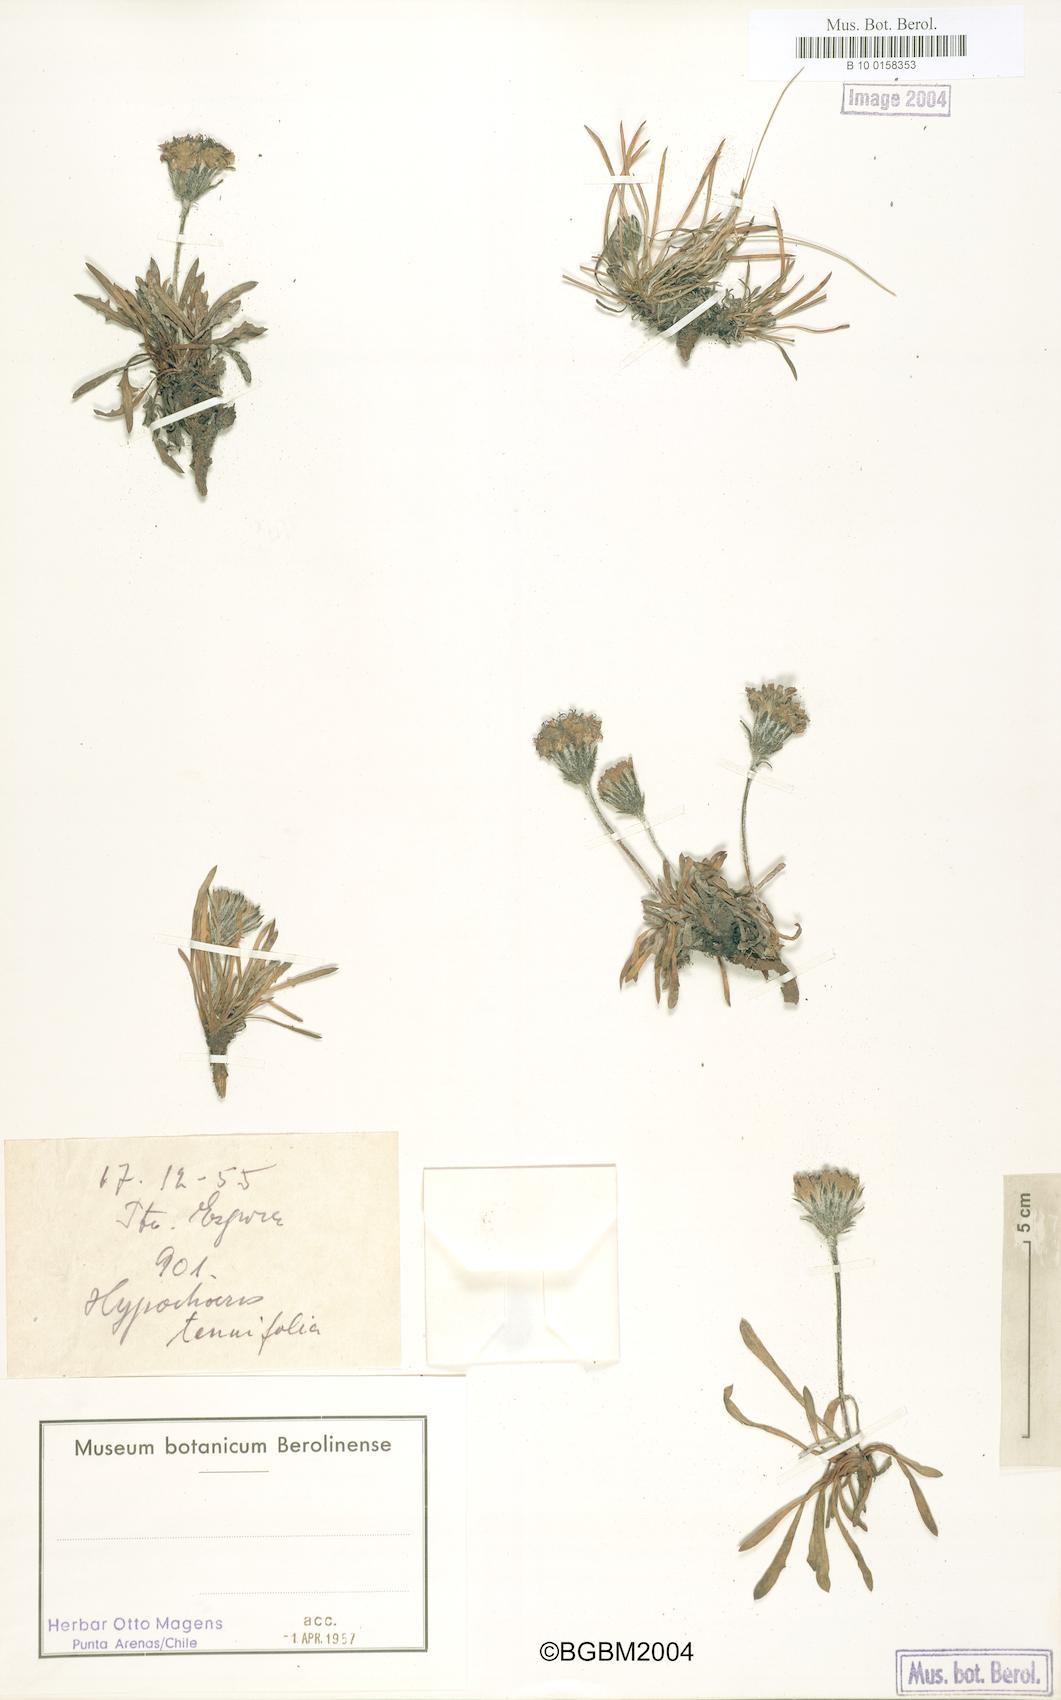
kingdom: Plantae
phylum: Tracheophyta
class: Magnoliopsida
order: Asterales
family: Asteraceae
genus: Hypochaeris
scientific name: Hypochaeris tenuifolia
